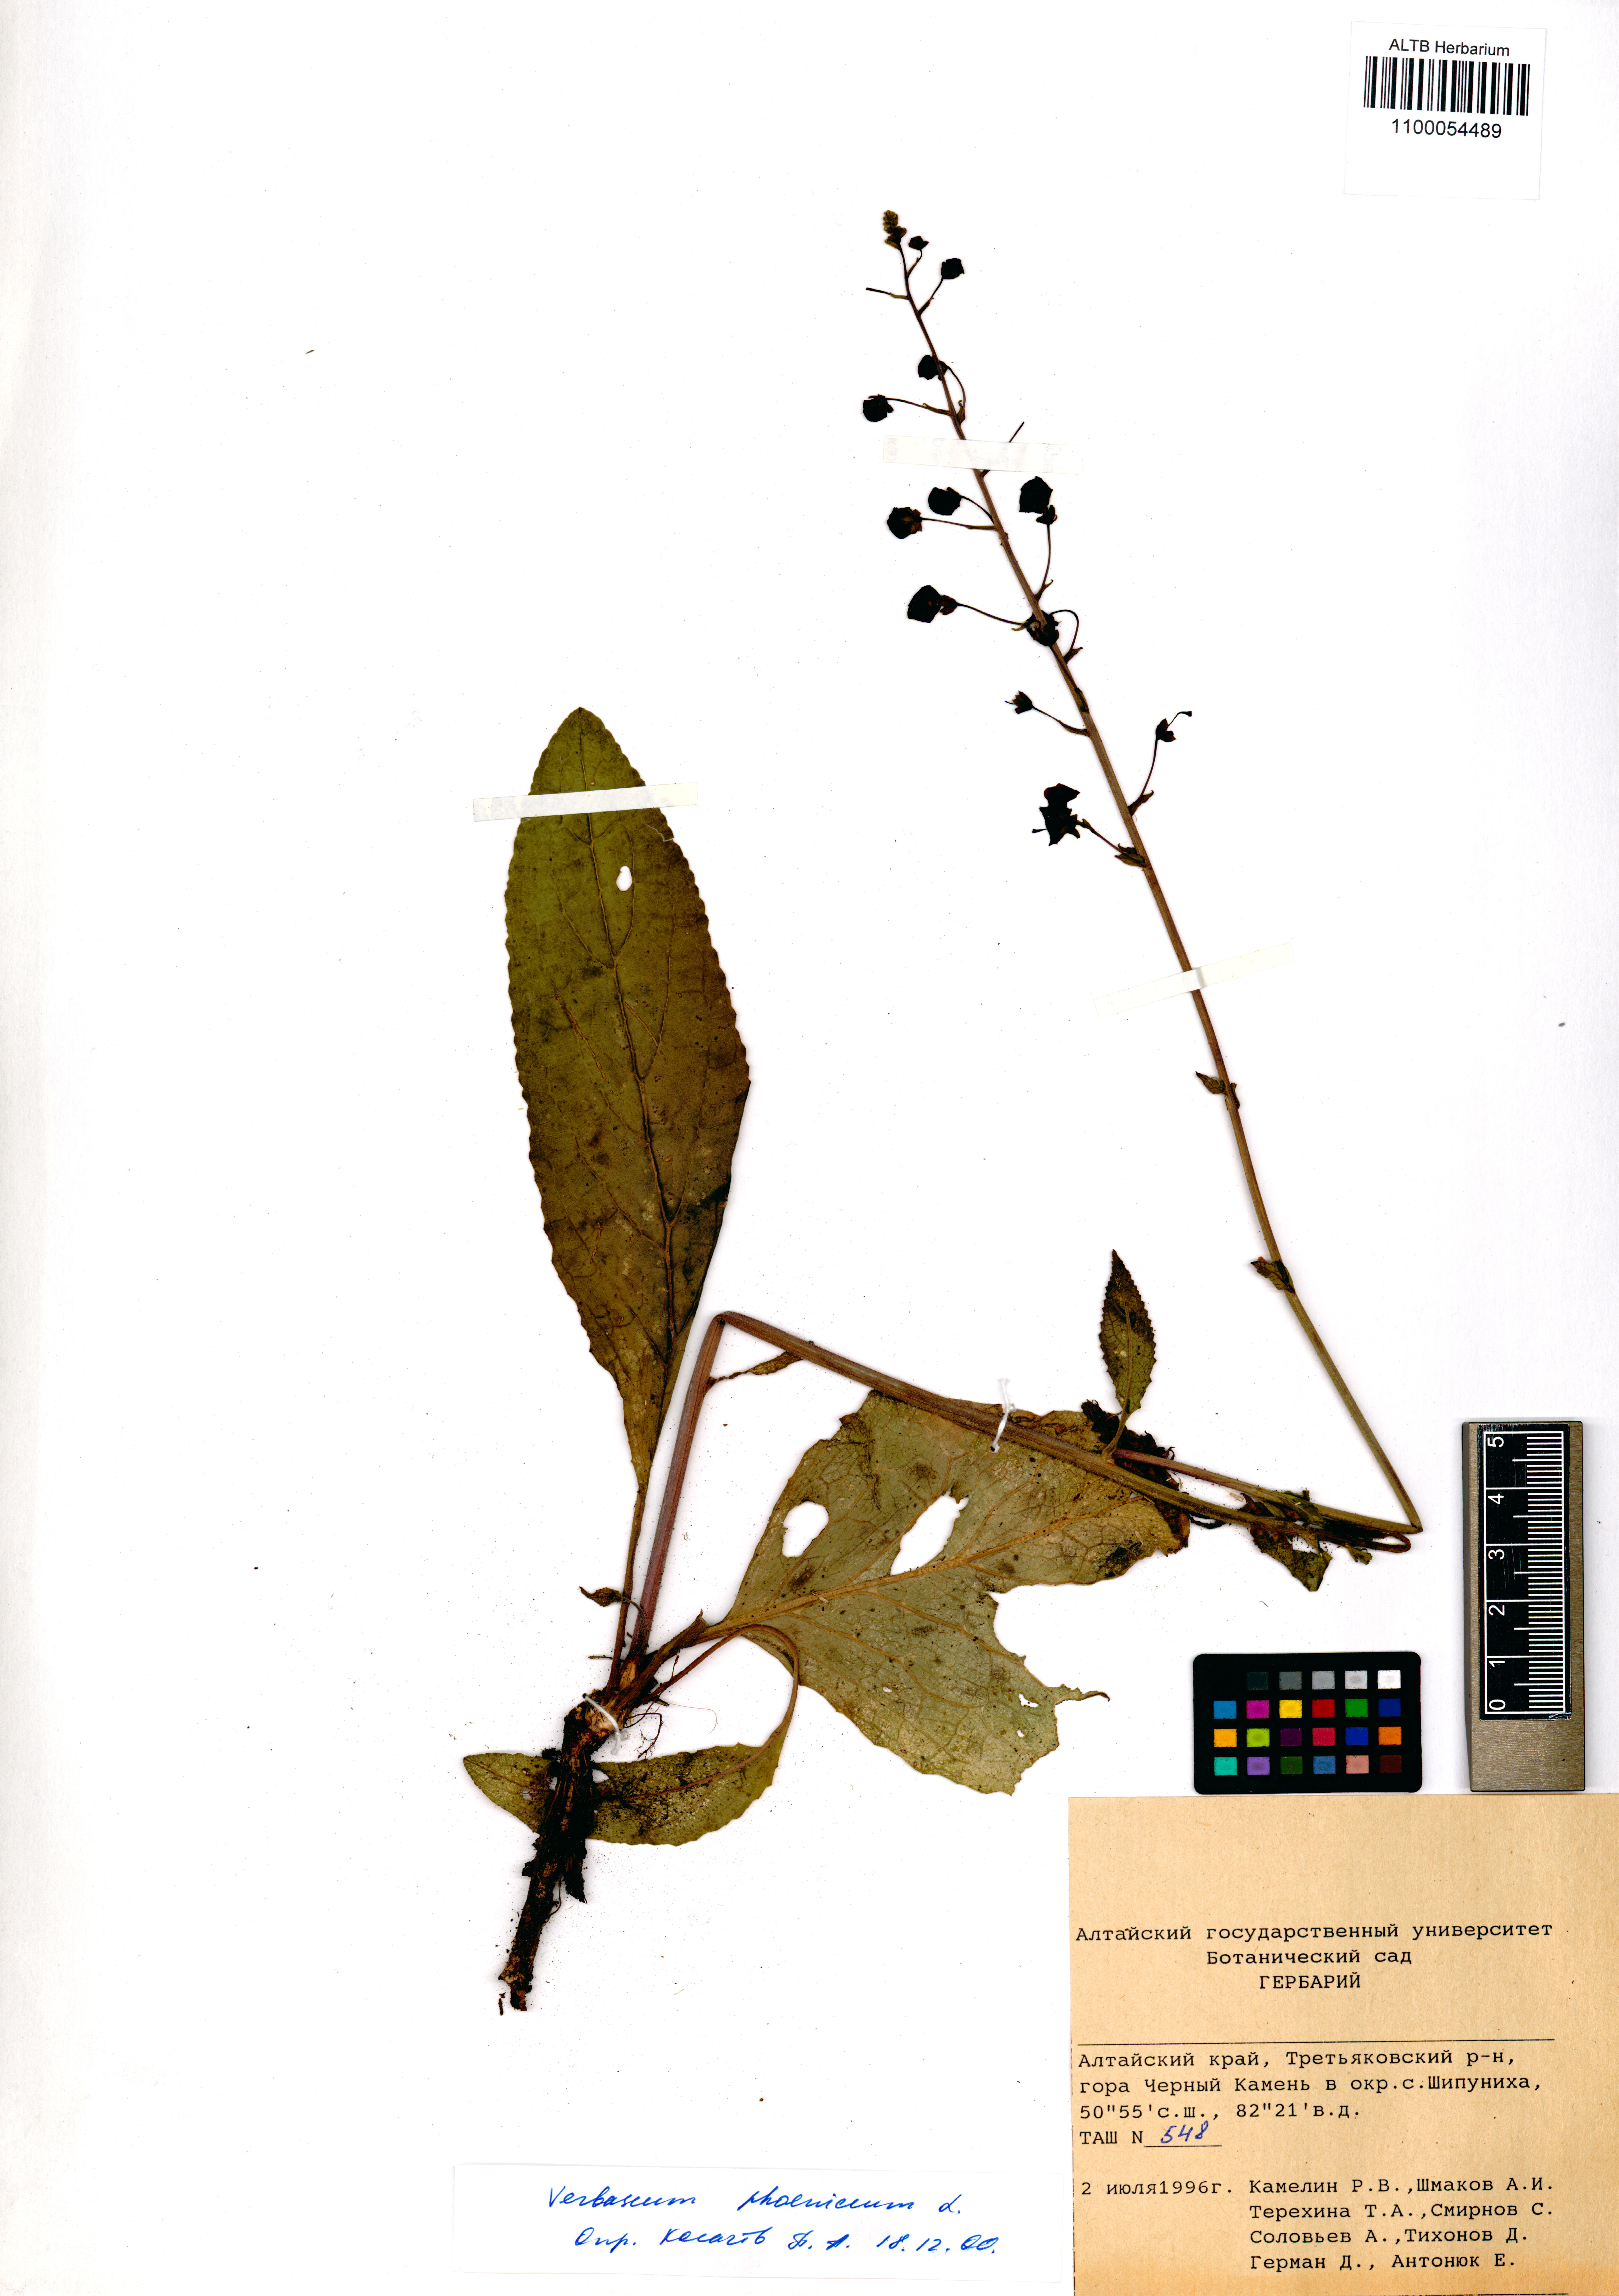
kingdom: Plantae
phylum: Tracheophyta
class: Magnoliopsida
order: Lamiales
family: Scrophulariaceae
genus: Verbascum
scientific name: Verbascum phoeniceum
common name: Purple mullein
